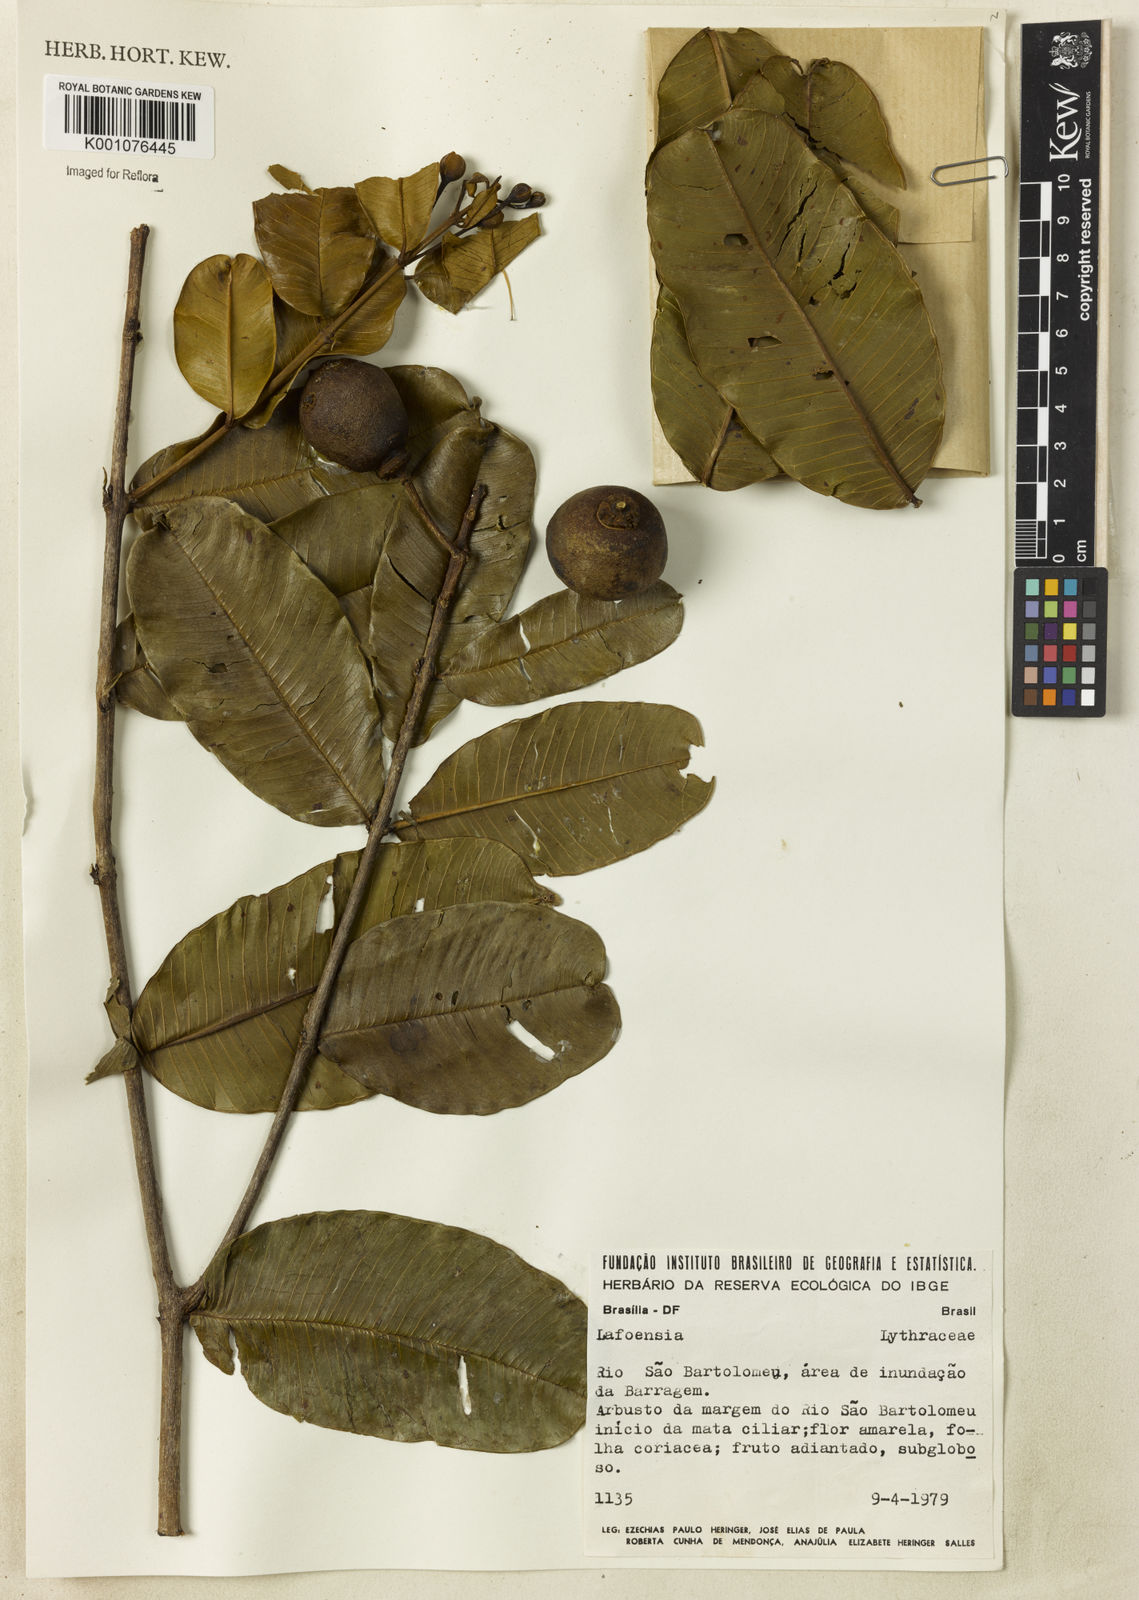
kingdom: Plantae
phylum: Tracheophyta
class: Magnoliopsida
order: Myrtales
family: Lythraceae
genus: Lafoensia
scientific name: Lafoensia
